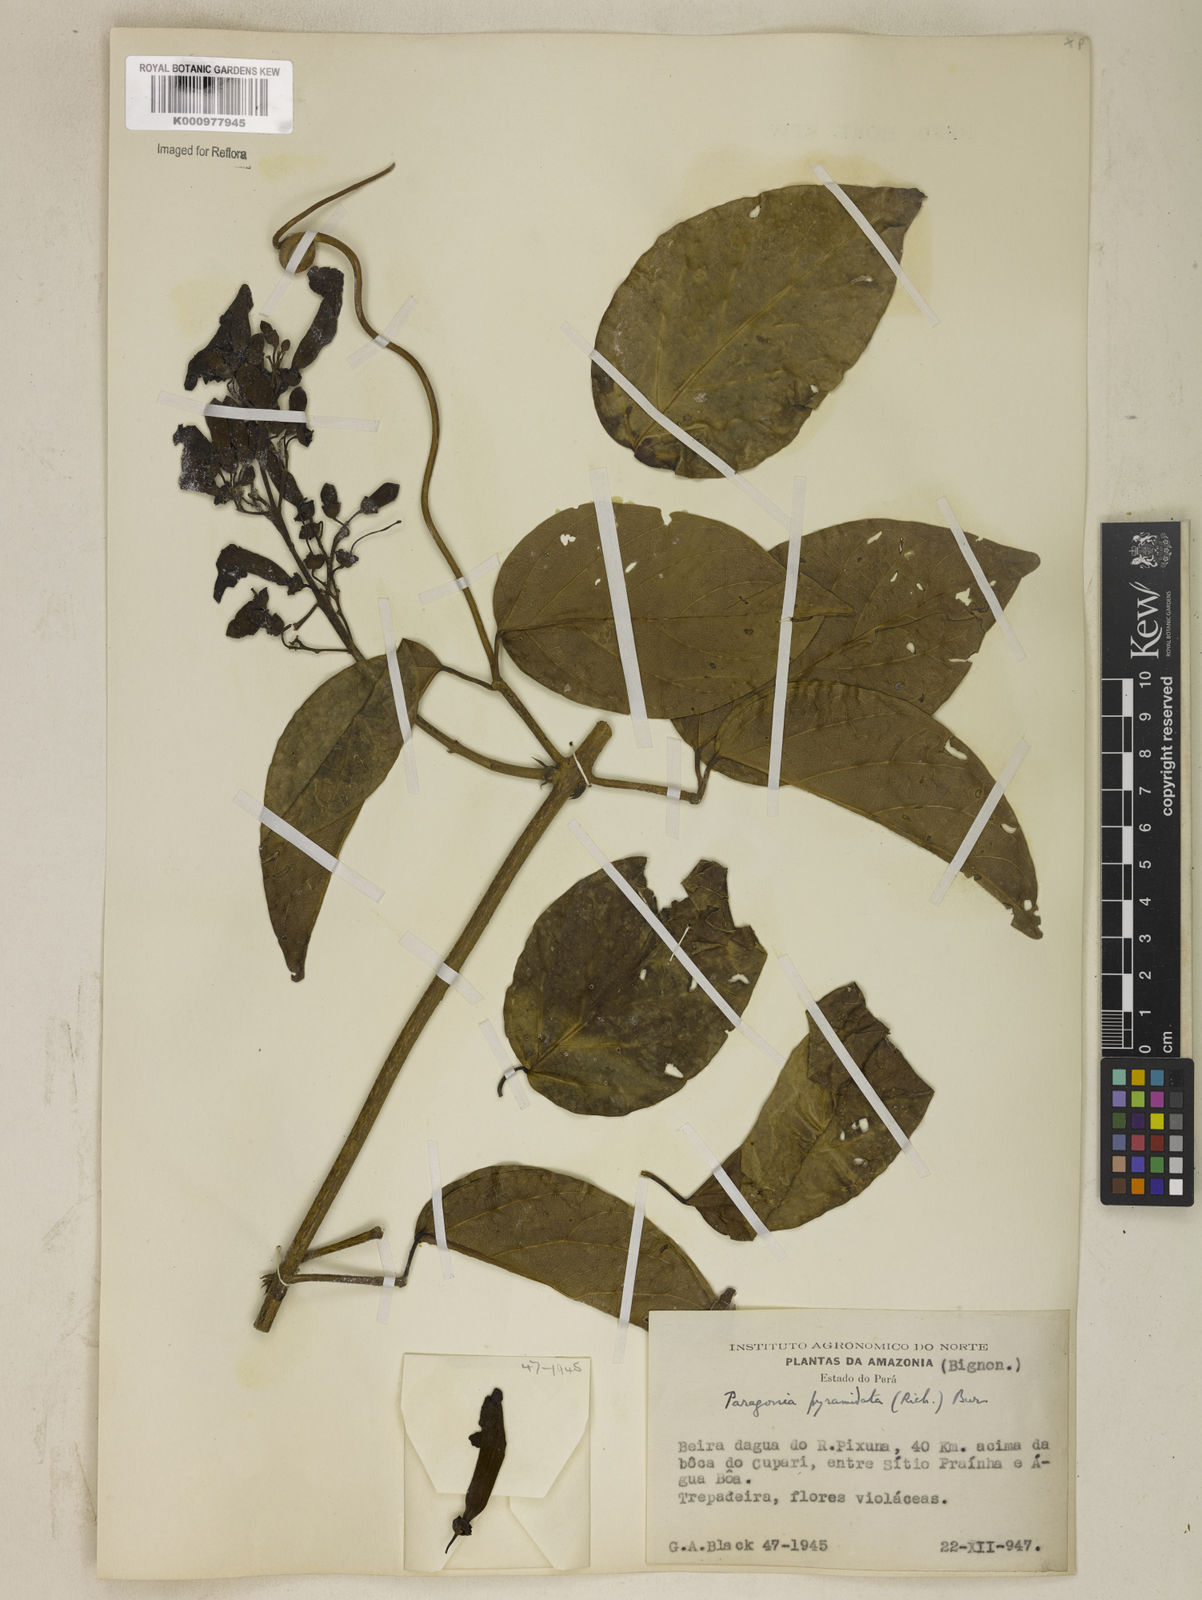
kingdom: Plantae
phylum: Tracheophyta
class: Magnoliopsida
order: Lamiales
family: Bignoniaceae
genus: Tanaecium
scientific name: Tanaecium pyramidatum
